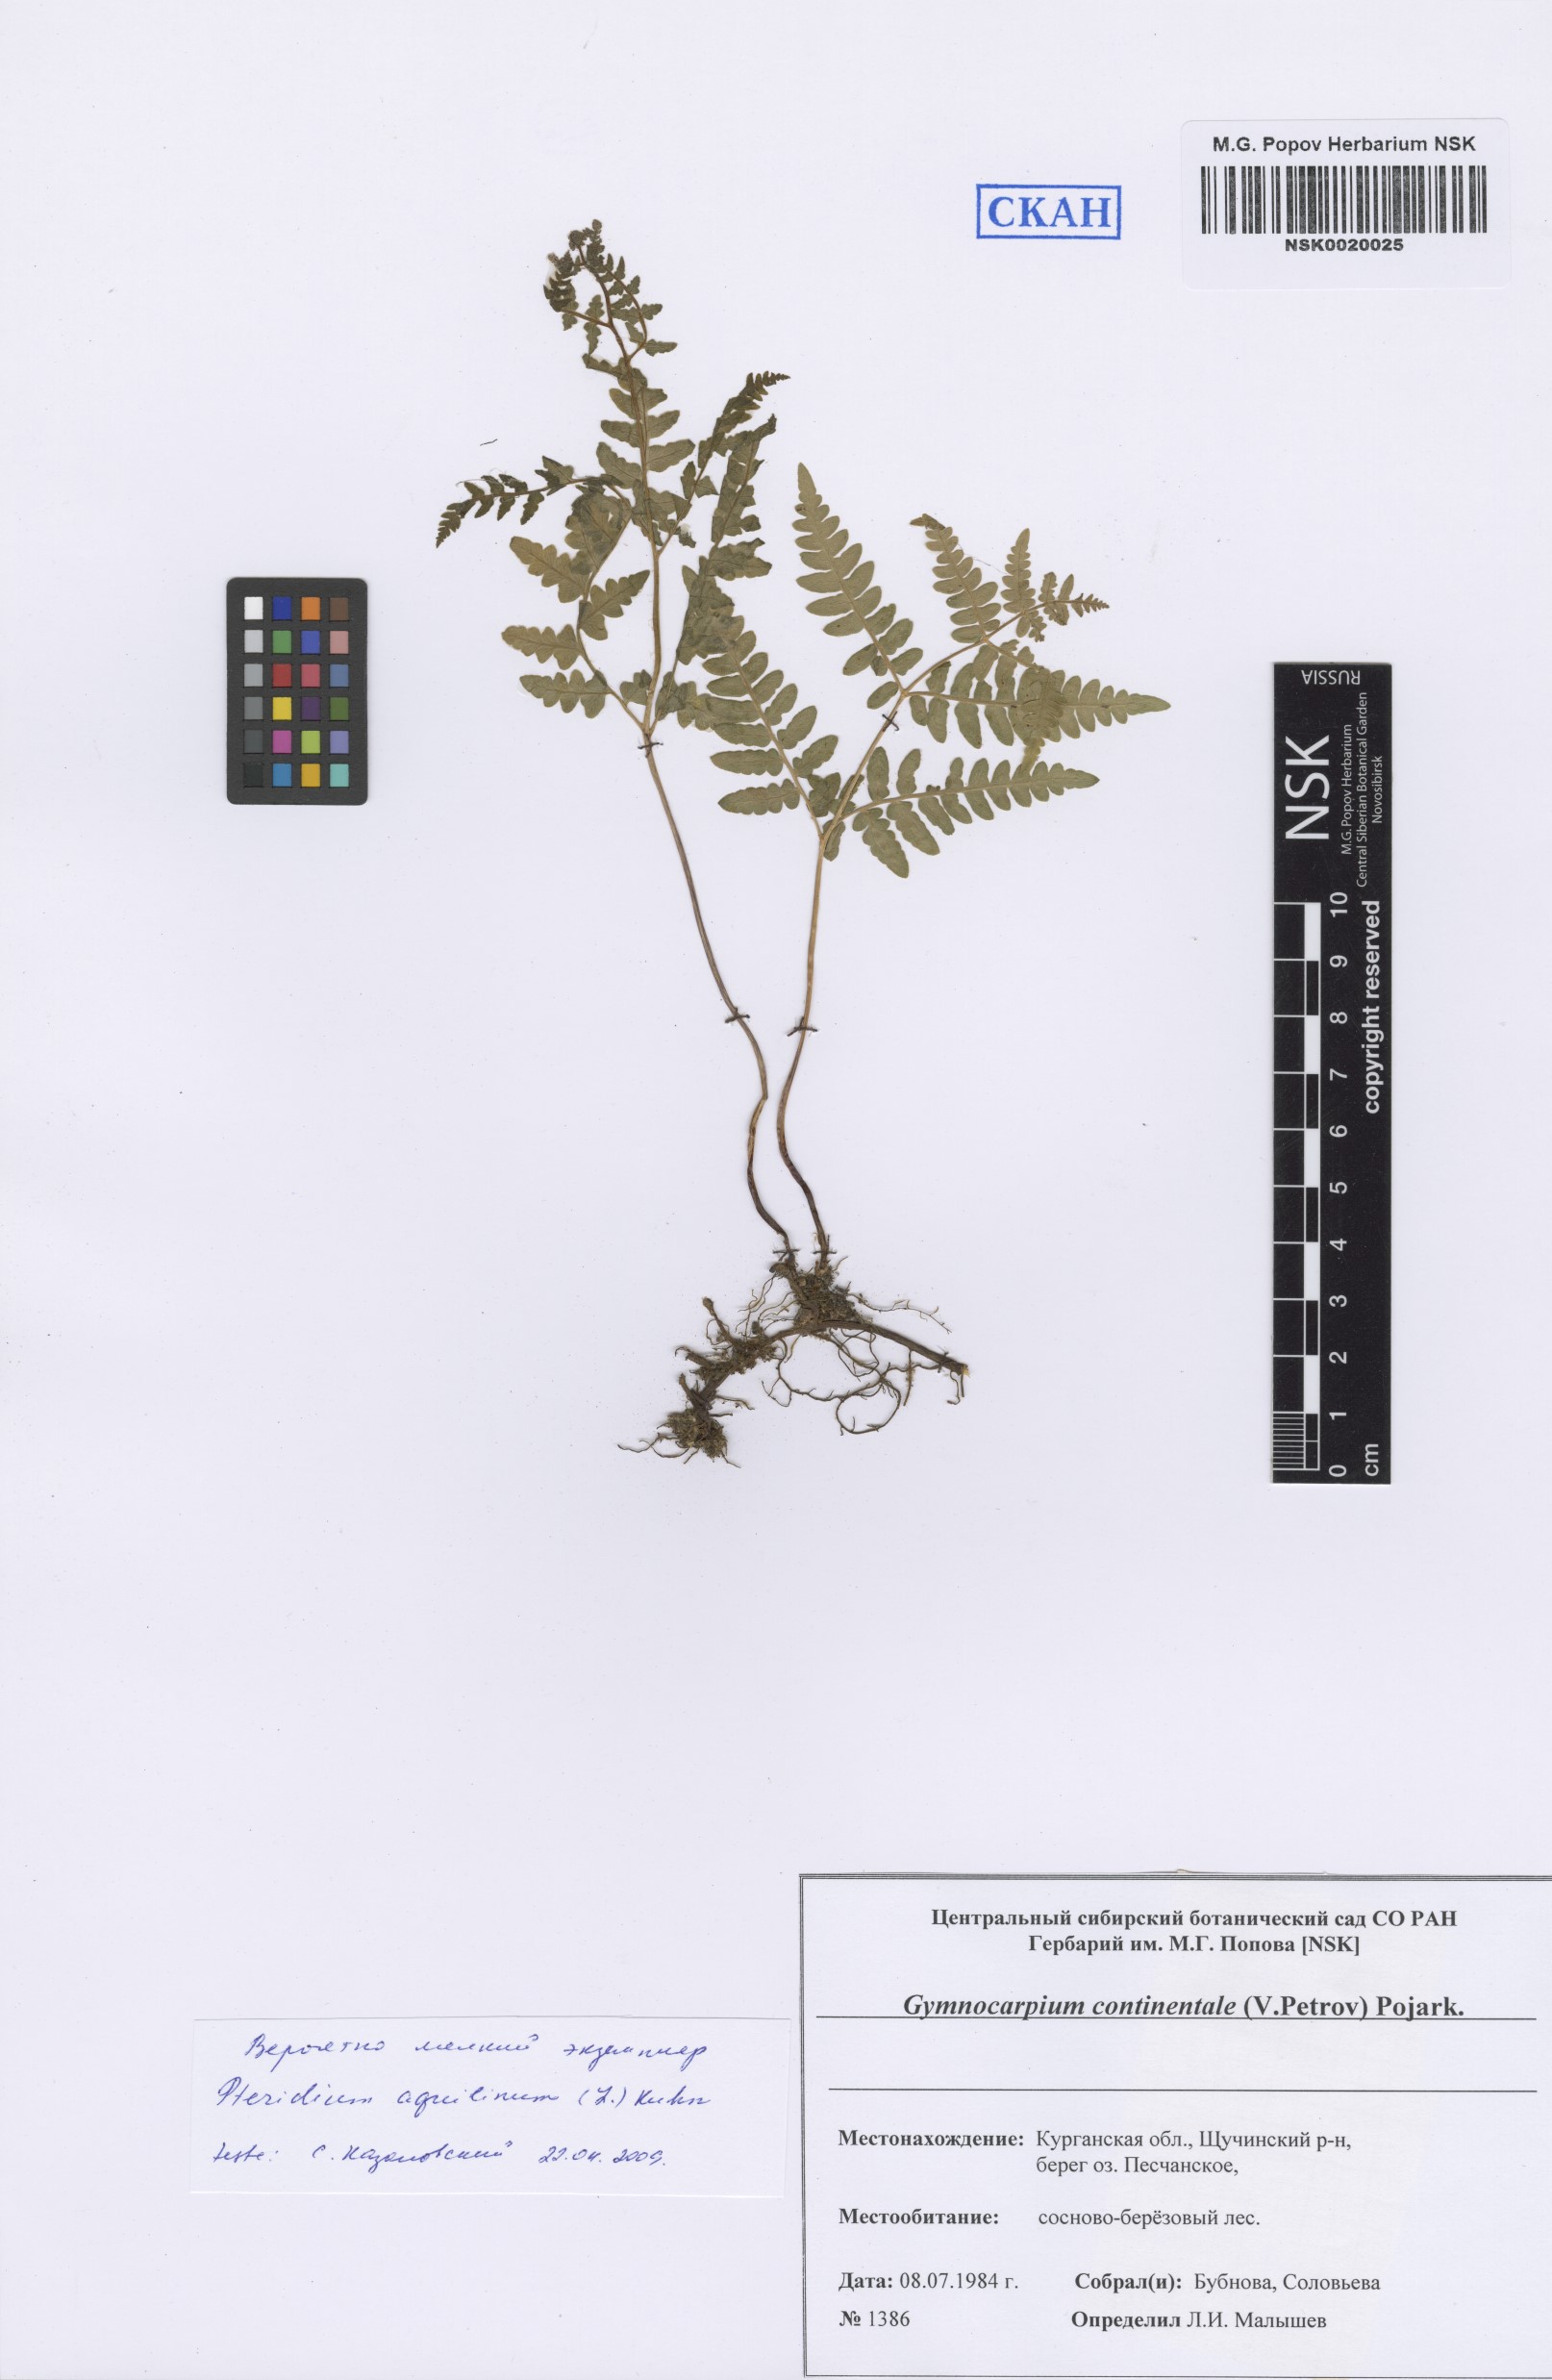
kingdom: Plantae
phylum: Tracheophyta
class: Polypodiopsida
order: Polypodiales
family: Cystopteridaceae
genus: Gymnocarpium
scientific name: Gymnocarpium continentale
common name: Asian oak fern
